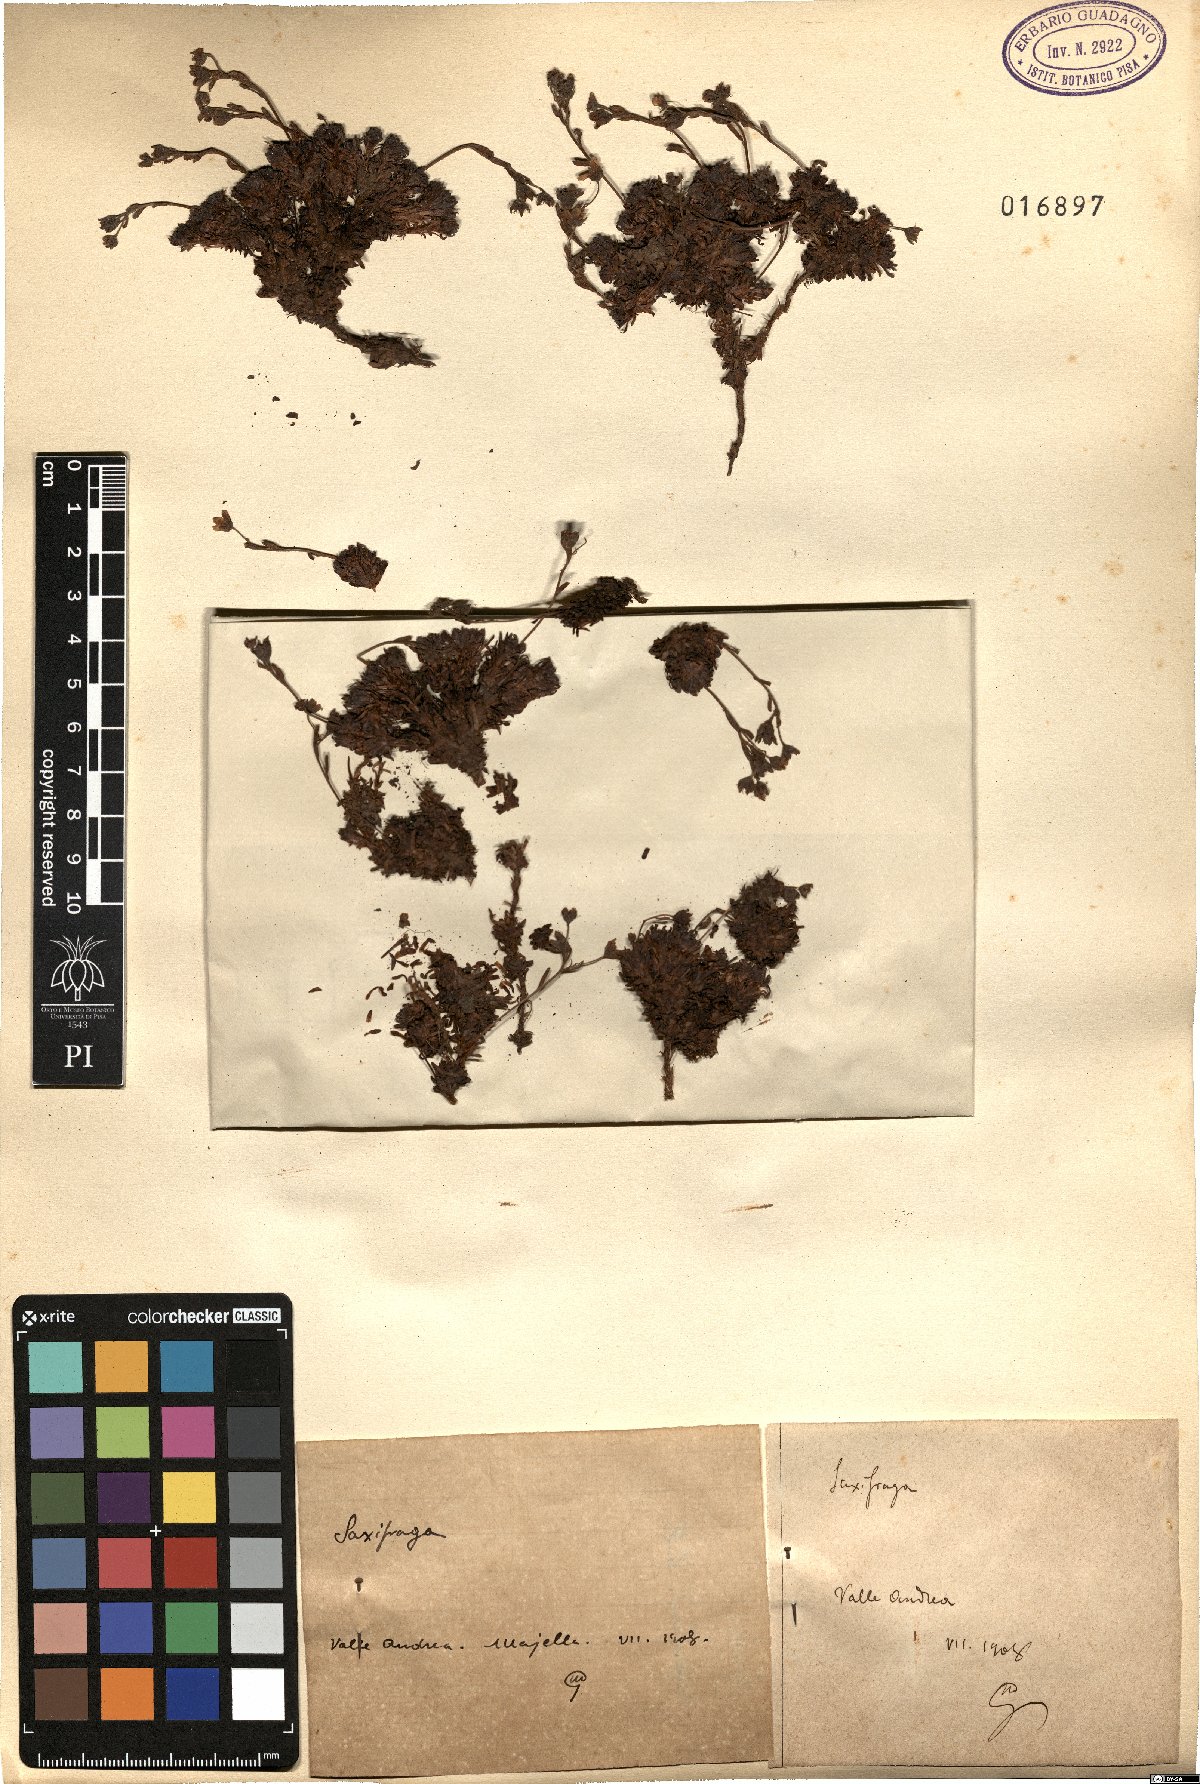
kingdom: Plantae
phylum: Tracheophyta
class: Magnoliopsida
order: Saxifragales
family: Saxifragaceae
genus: Saxifraga
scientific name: Saxifraga
